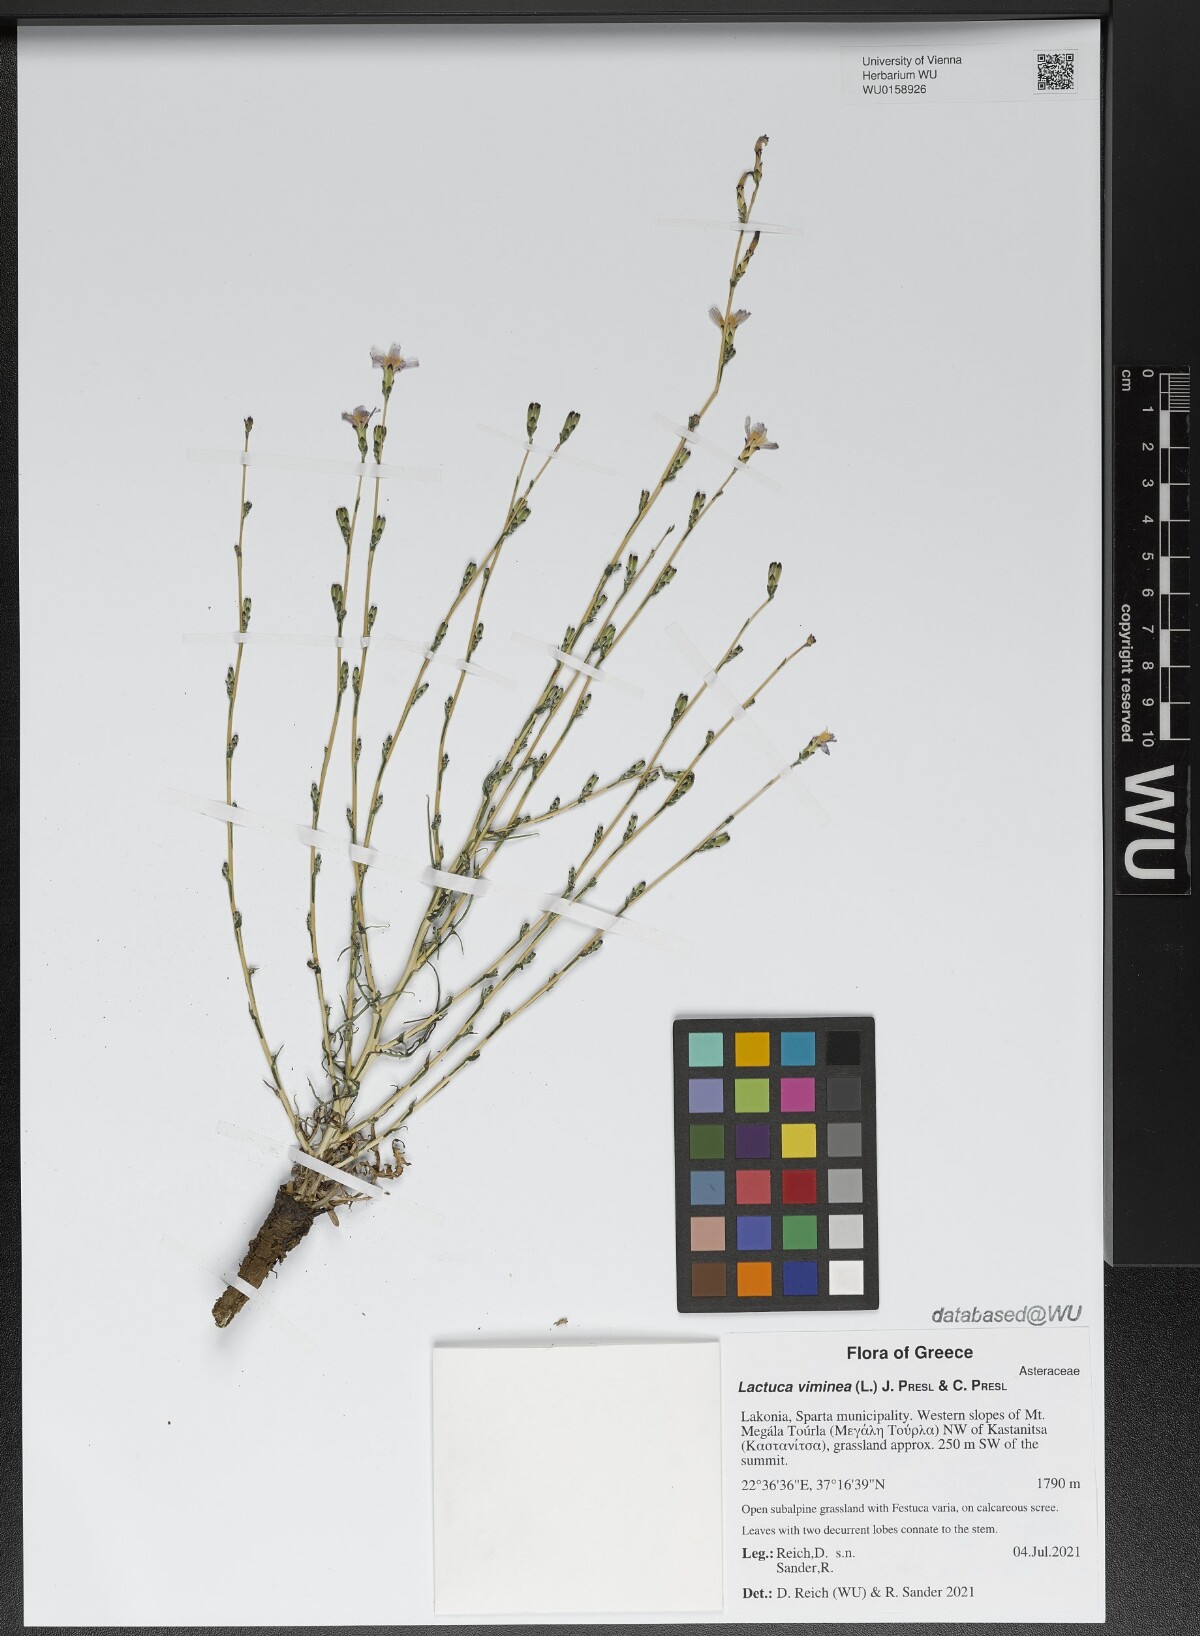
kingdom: Plantae
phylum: Tracheophyta
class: Magnoliopsida
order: Asterales
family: Asteraceae
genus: Lactuca
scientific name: Lactuca viminea
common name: Pliant lettuce
